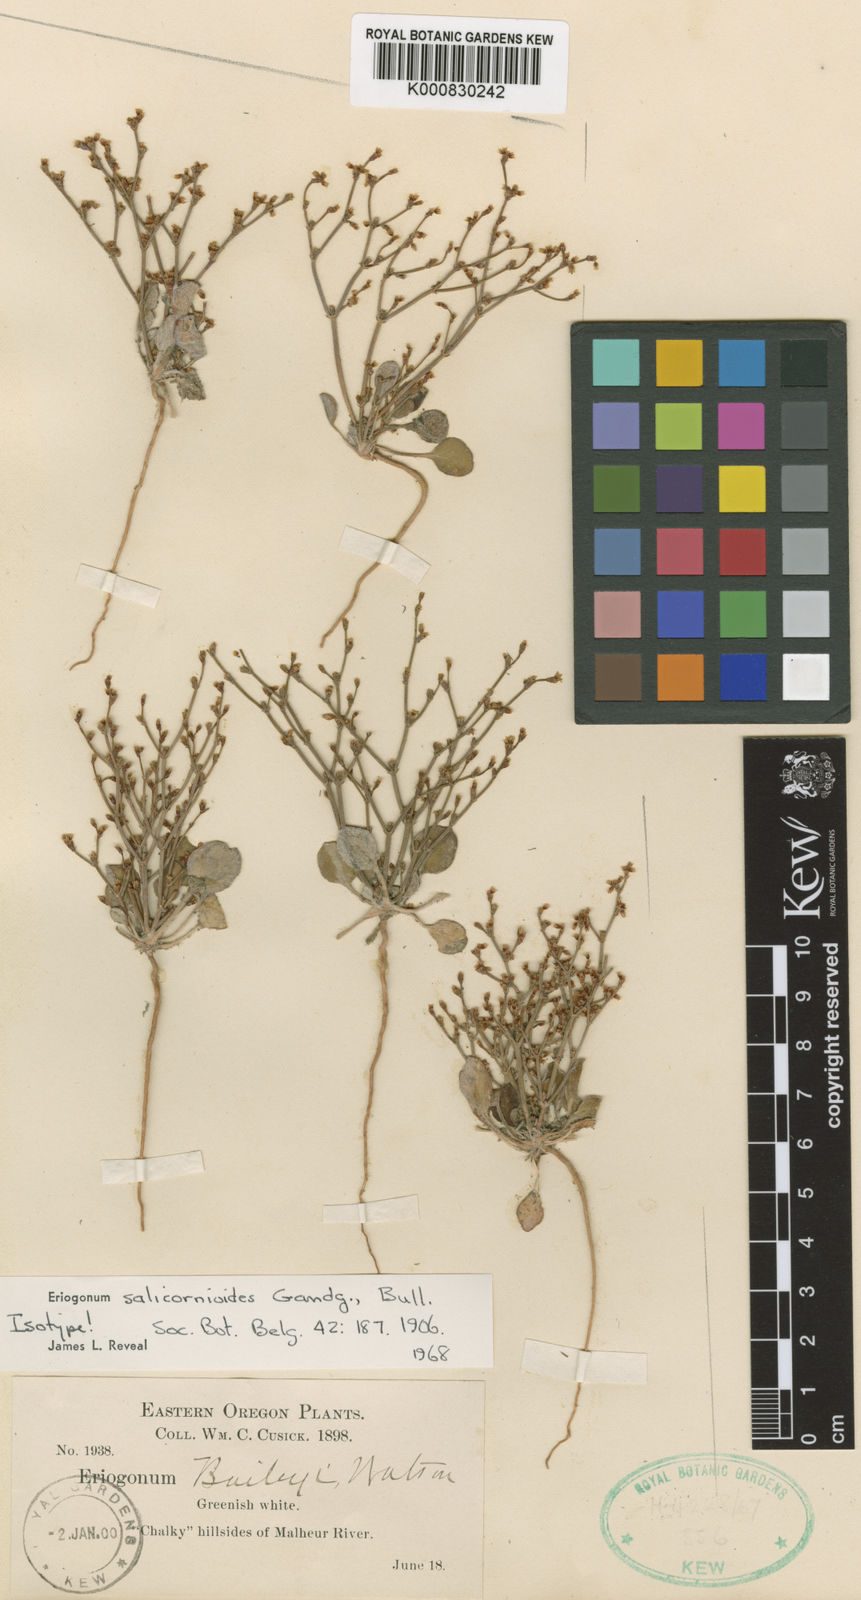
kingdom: Plantae
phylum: Tracheophyta
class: Magnoliopsida
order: Caryophyllales
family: Polygonaceae
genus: Eriogonum
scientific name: Eriogonum salicornioides
